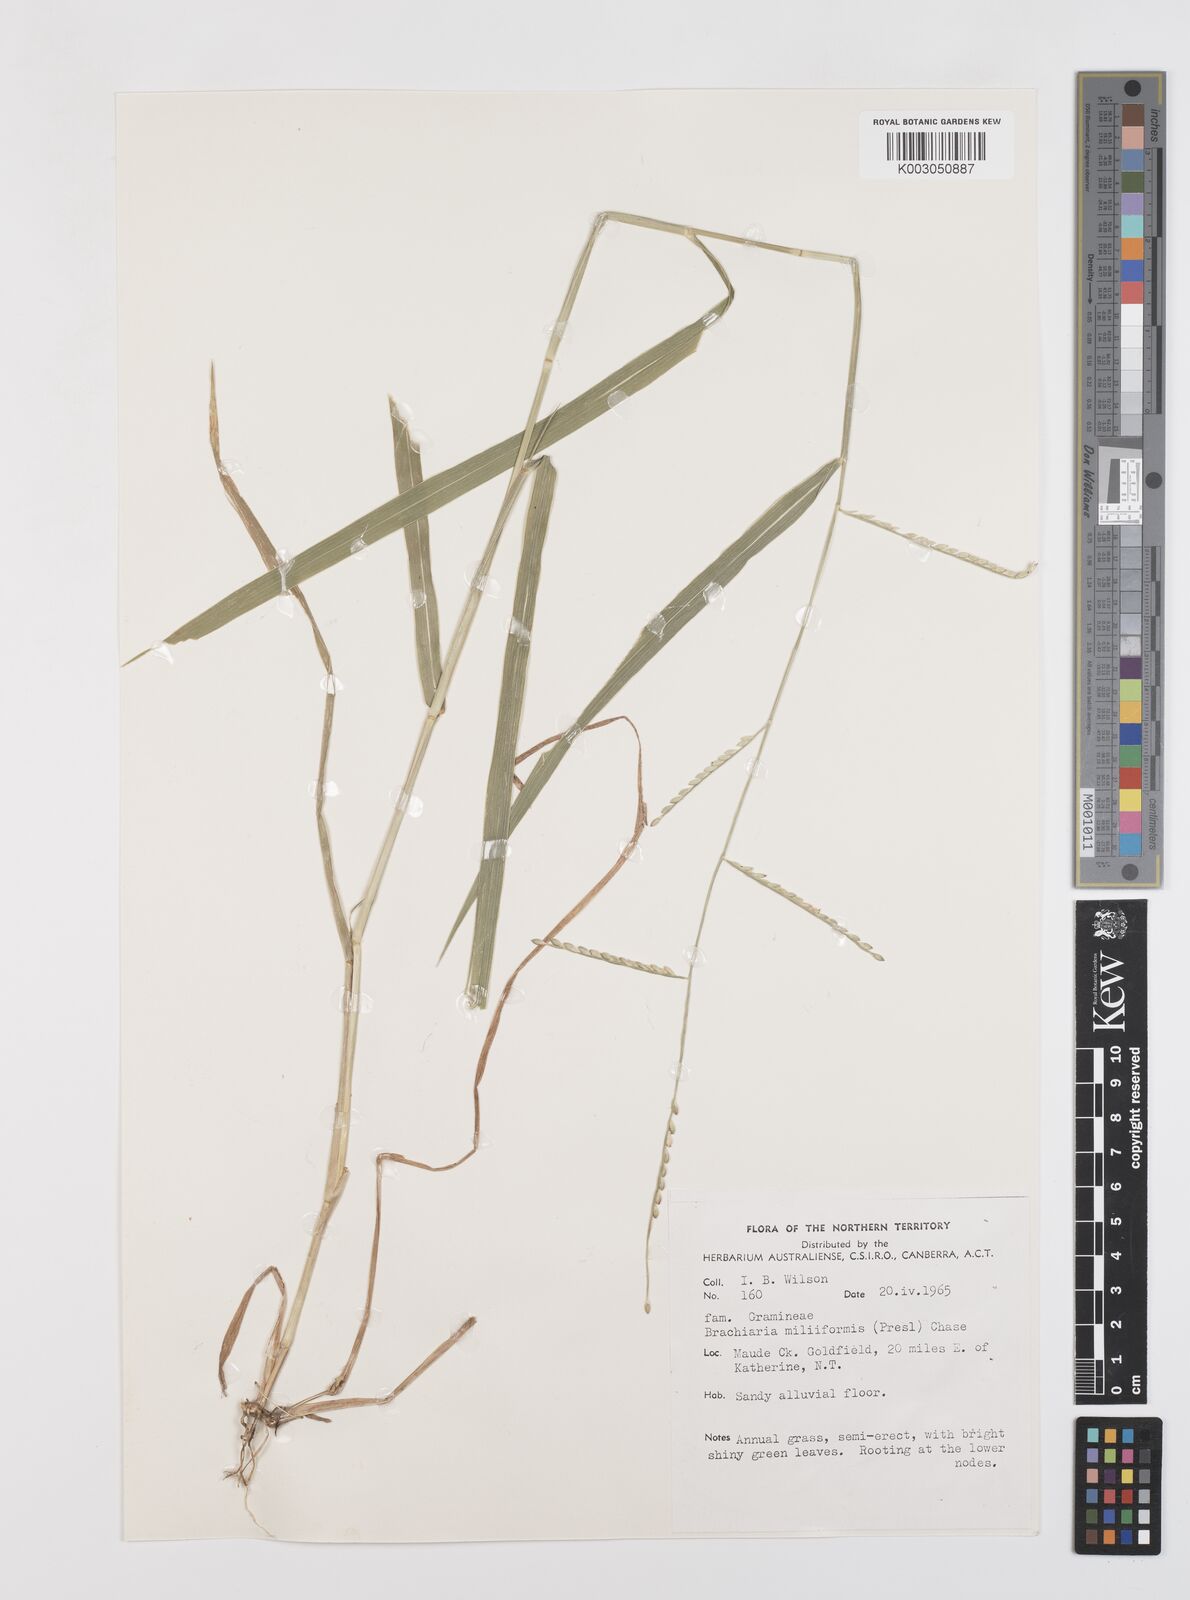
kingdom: Plantae
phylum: Tracheophyta
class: Liliopsida
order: Poales
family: Poaceae
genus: Urochloa
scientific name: Urochloa subquadripara
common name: Armgrass millet
